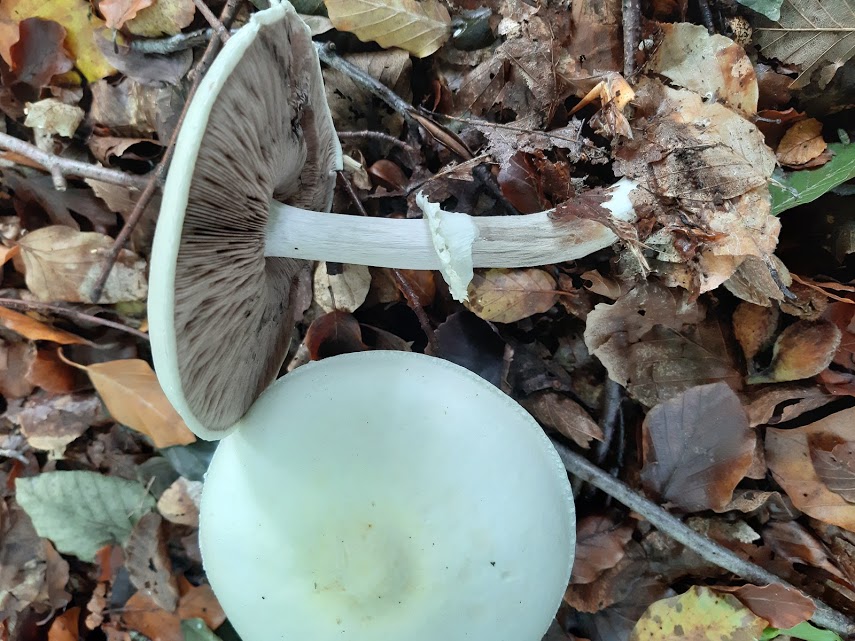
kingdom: Fungi
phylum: Basidiomycota
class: Agaricomycetes
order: Agaricales
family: Agaricaceae
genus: Agaricus
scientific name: Agaricus sylvicola
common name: gulhvid champignon
